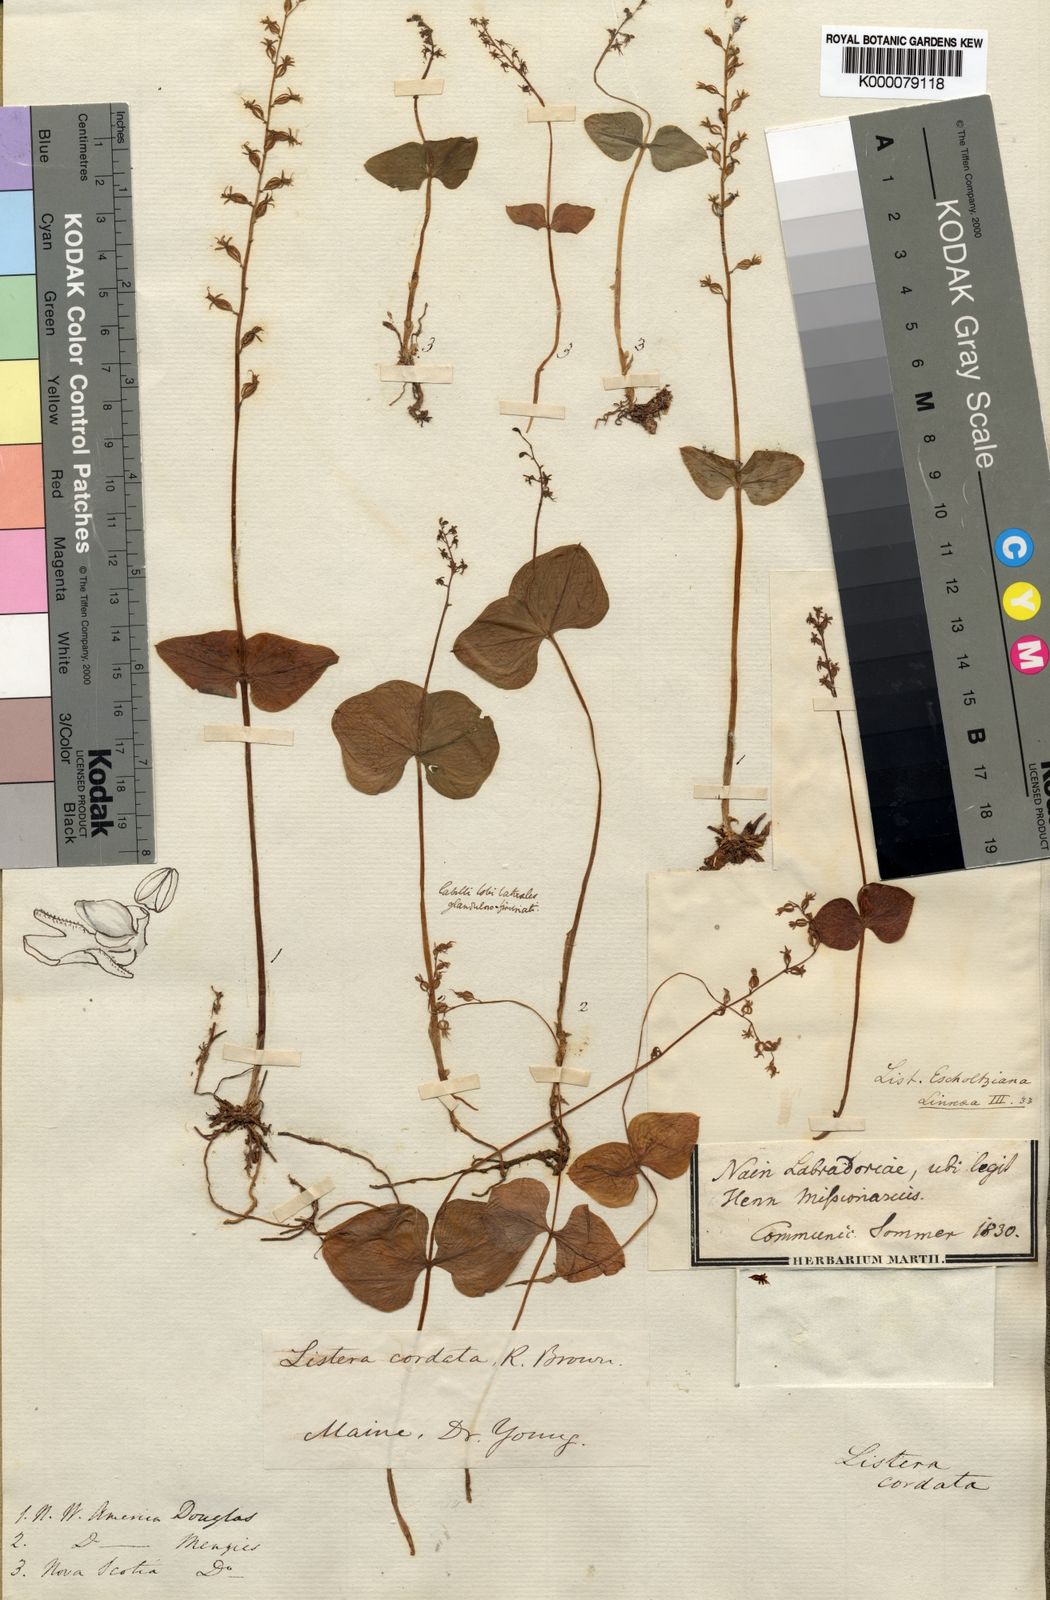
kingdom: Plantae
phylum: Tracheophyta
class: Liliopsida
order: Asparagales
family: Orchidaceae
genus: Neottia
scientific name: Neottia cordata
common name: Lesser twayblade
